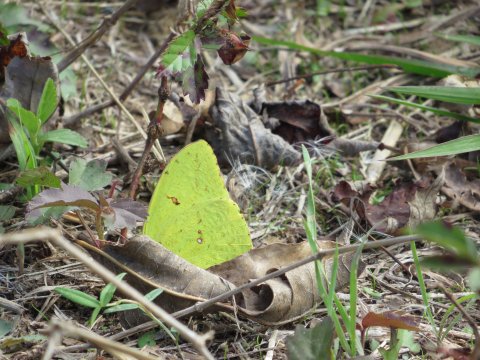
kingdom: Animalia
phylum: Arthropoda
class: Insecta
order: Lepidoptera
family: Pieridae
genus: Phoebis
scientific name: Phoebis sennae
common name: Cloudless Sulphur
